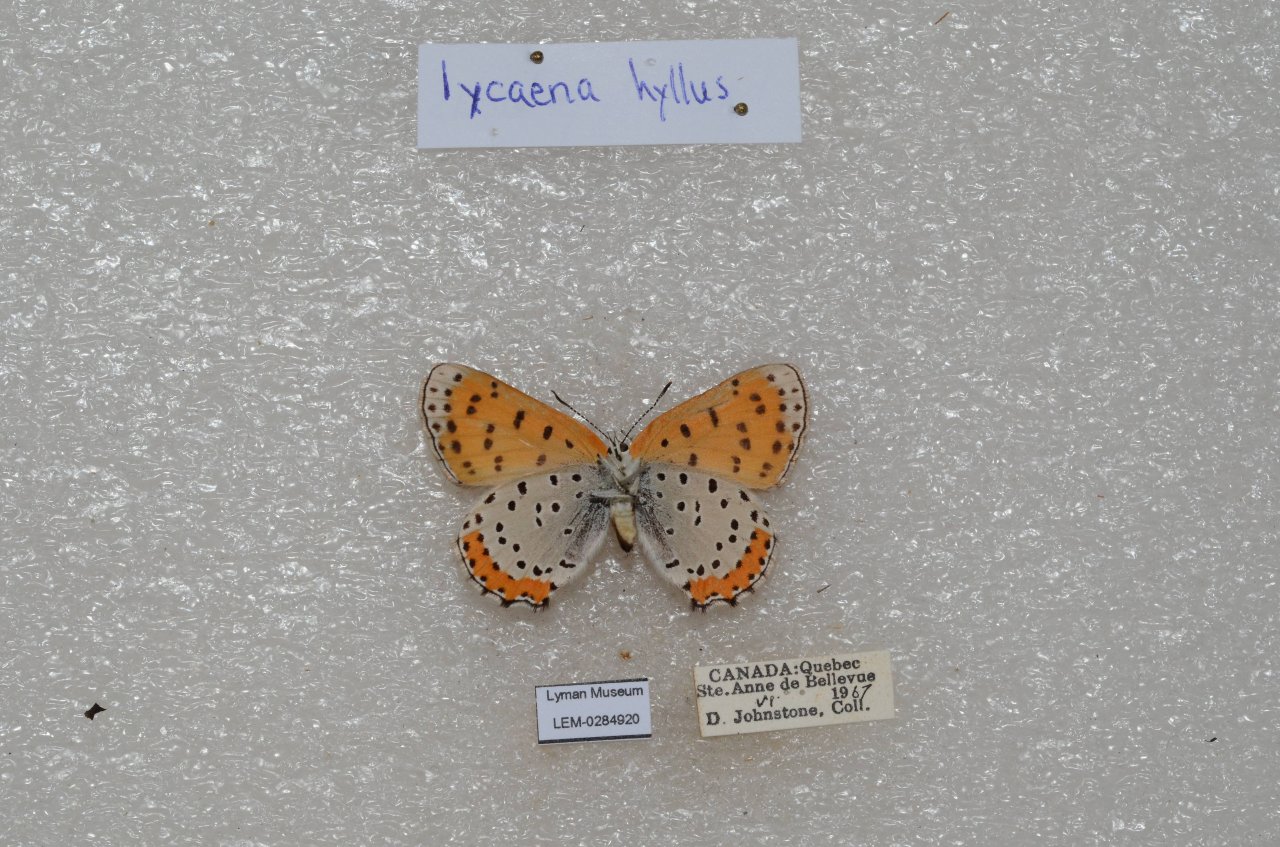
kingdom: Animalia
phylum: Arthropoda
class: Insecta
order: Lepidoptera
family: Sesiidae
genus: Sesia
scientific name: Sesia Lycaena hyllus
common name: Bronze Copper
